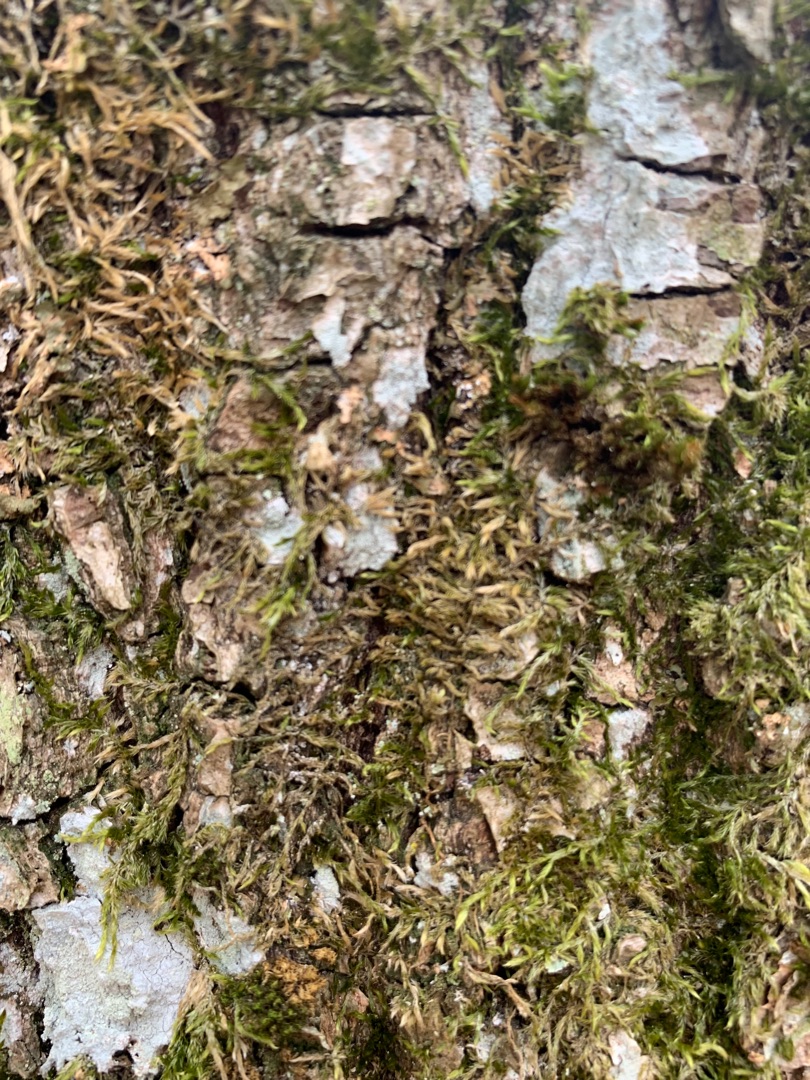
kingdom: Plantae
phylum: Bryophyta
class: Bryopsida
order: Hypnales
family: Hypnaceae
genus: Hypnum
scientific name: Hypnum
